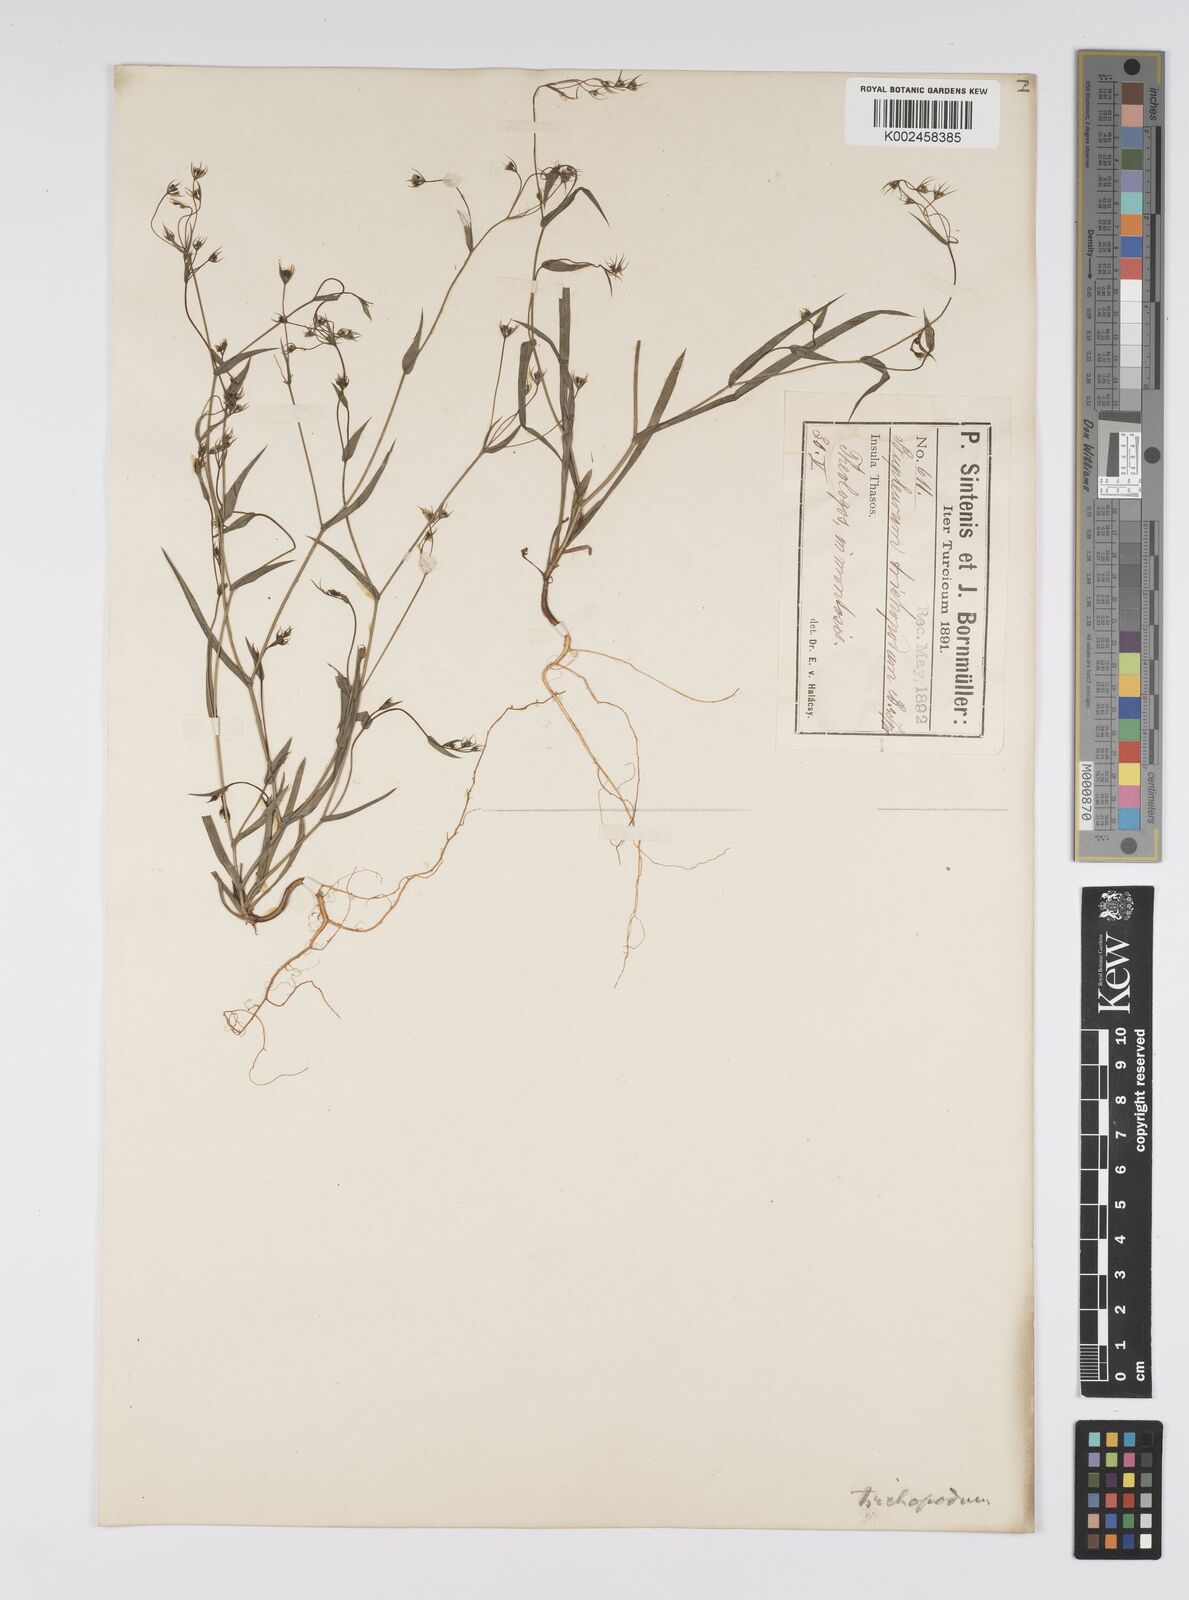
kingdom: Plantae
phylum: Tracheophyta
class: Magnoliopsida
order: Apiales
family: Apiaceae
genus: Bupleurum
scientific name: Bupleurum trichopodum
